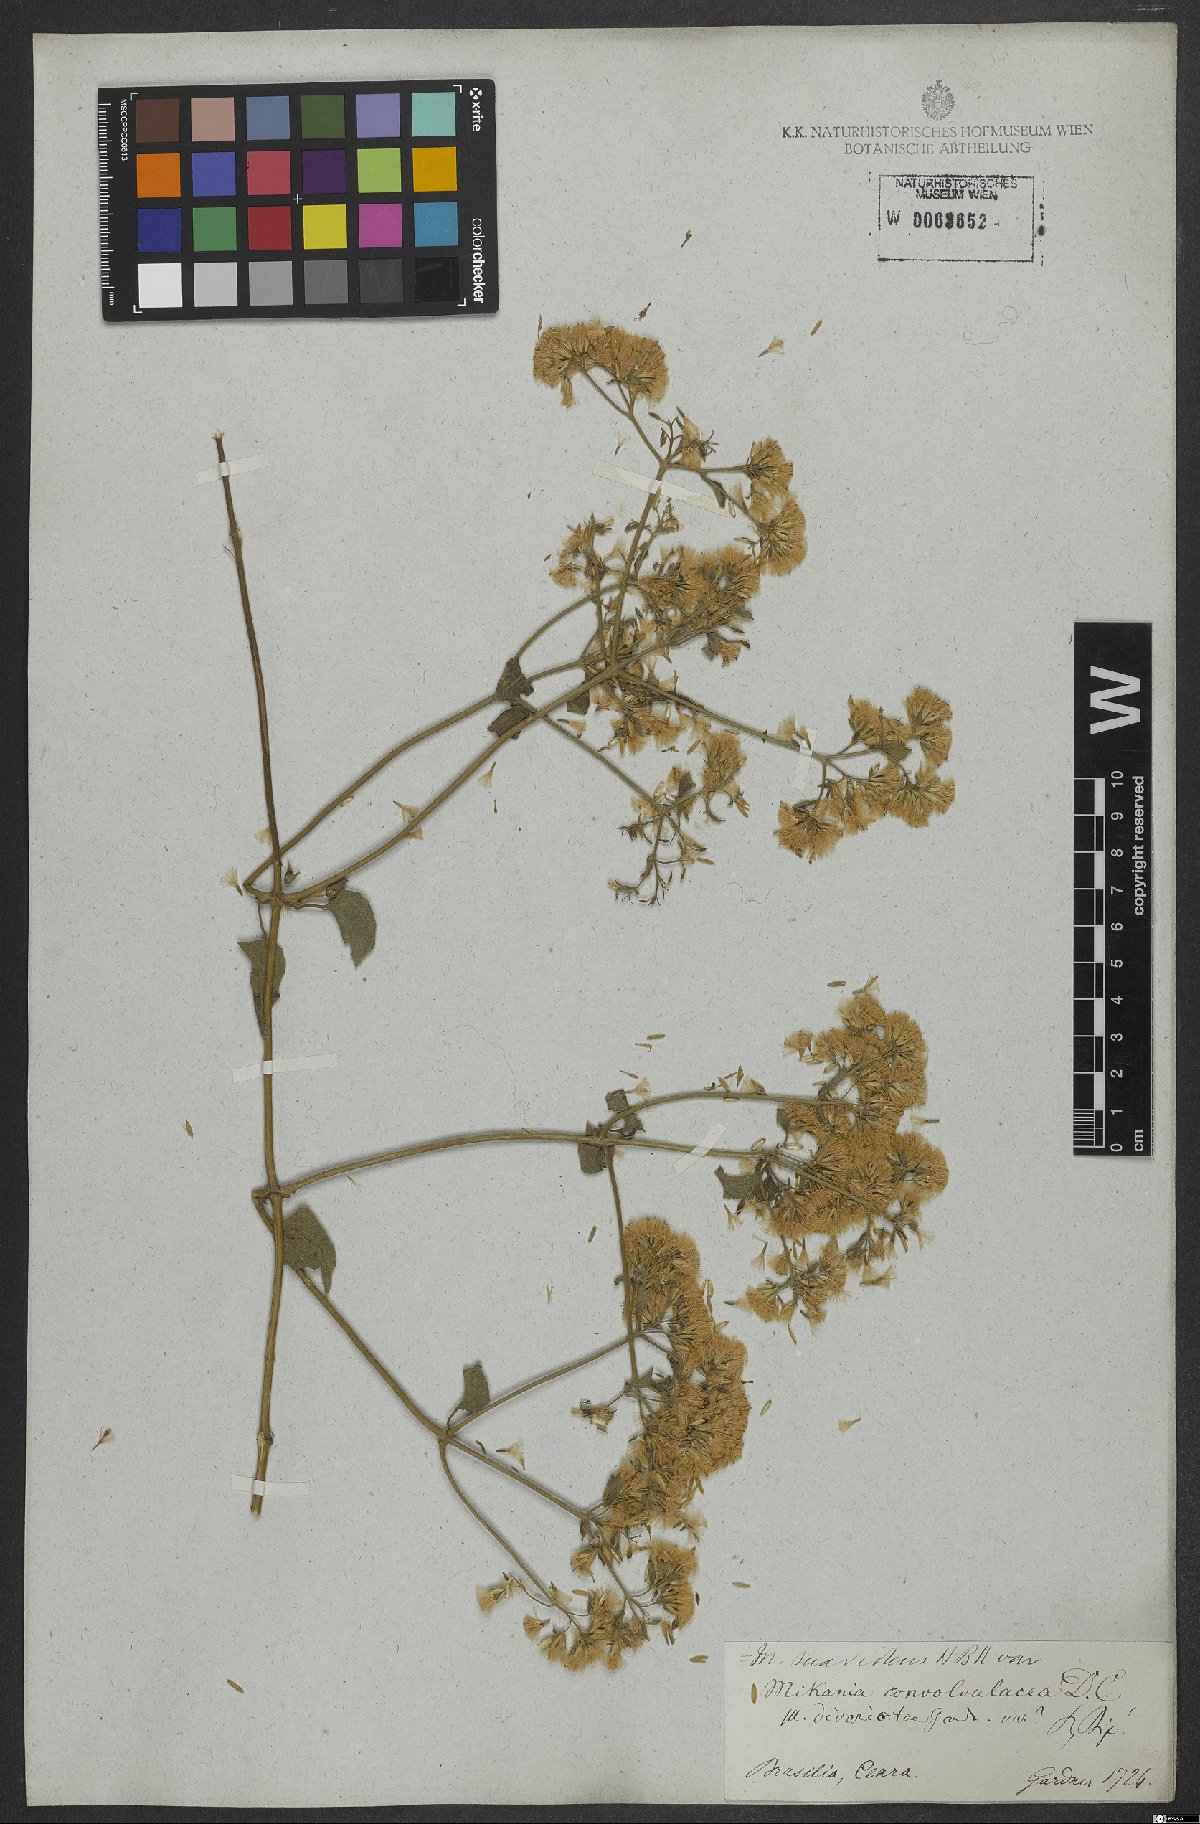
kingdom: Plantae
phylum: Tracheophyta
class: Magnoliopsida
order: Asterales
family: Asteraceae
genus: Mikania
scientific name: Mikania cordifolia
